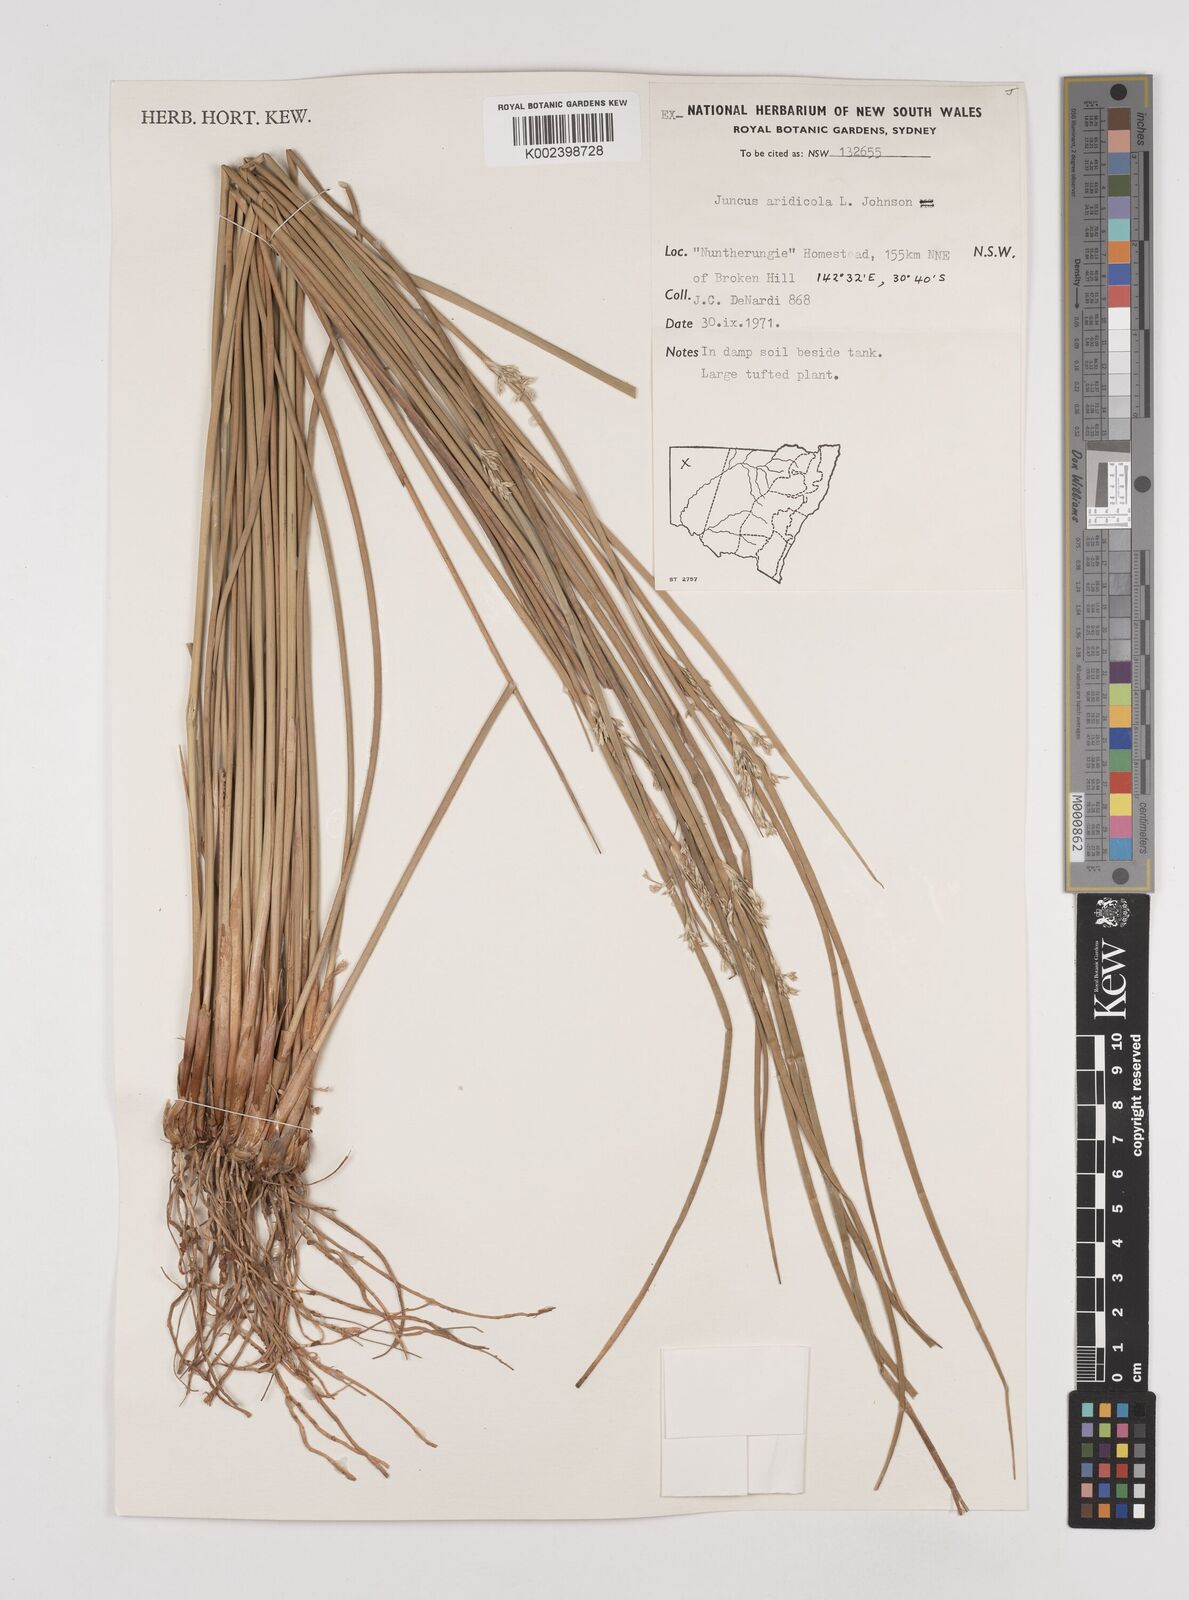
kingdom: Plantae
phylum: Tracheophyta
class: Liliopsida
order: Poales
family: Juncaceae
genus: Juncus
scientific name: Juncus aridicola
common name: Tussock rush
